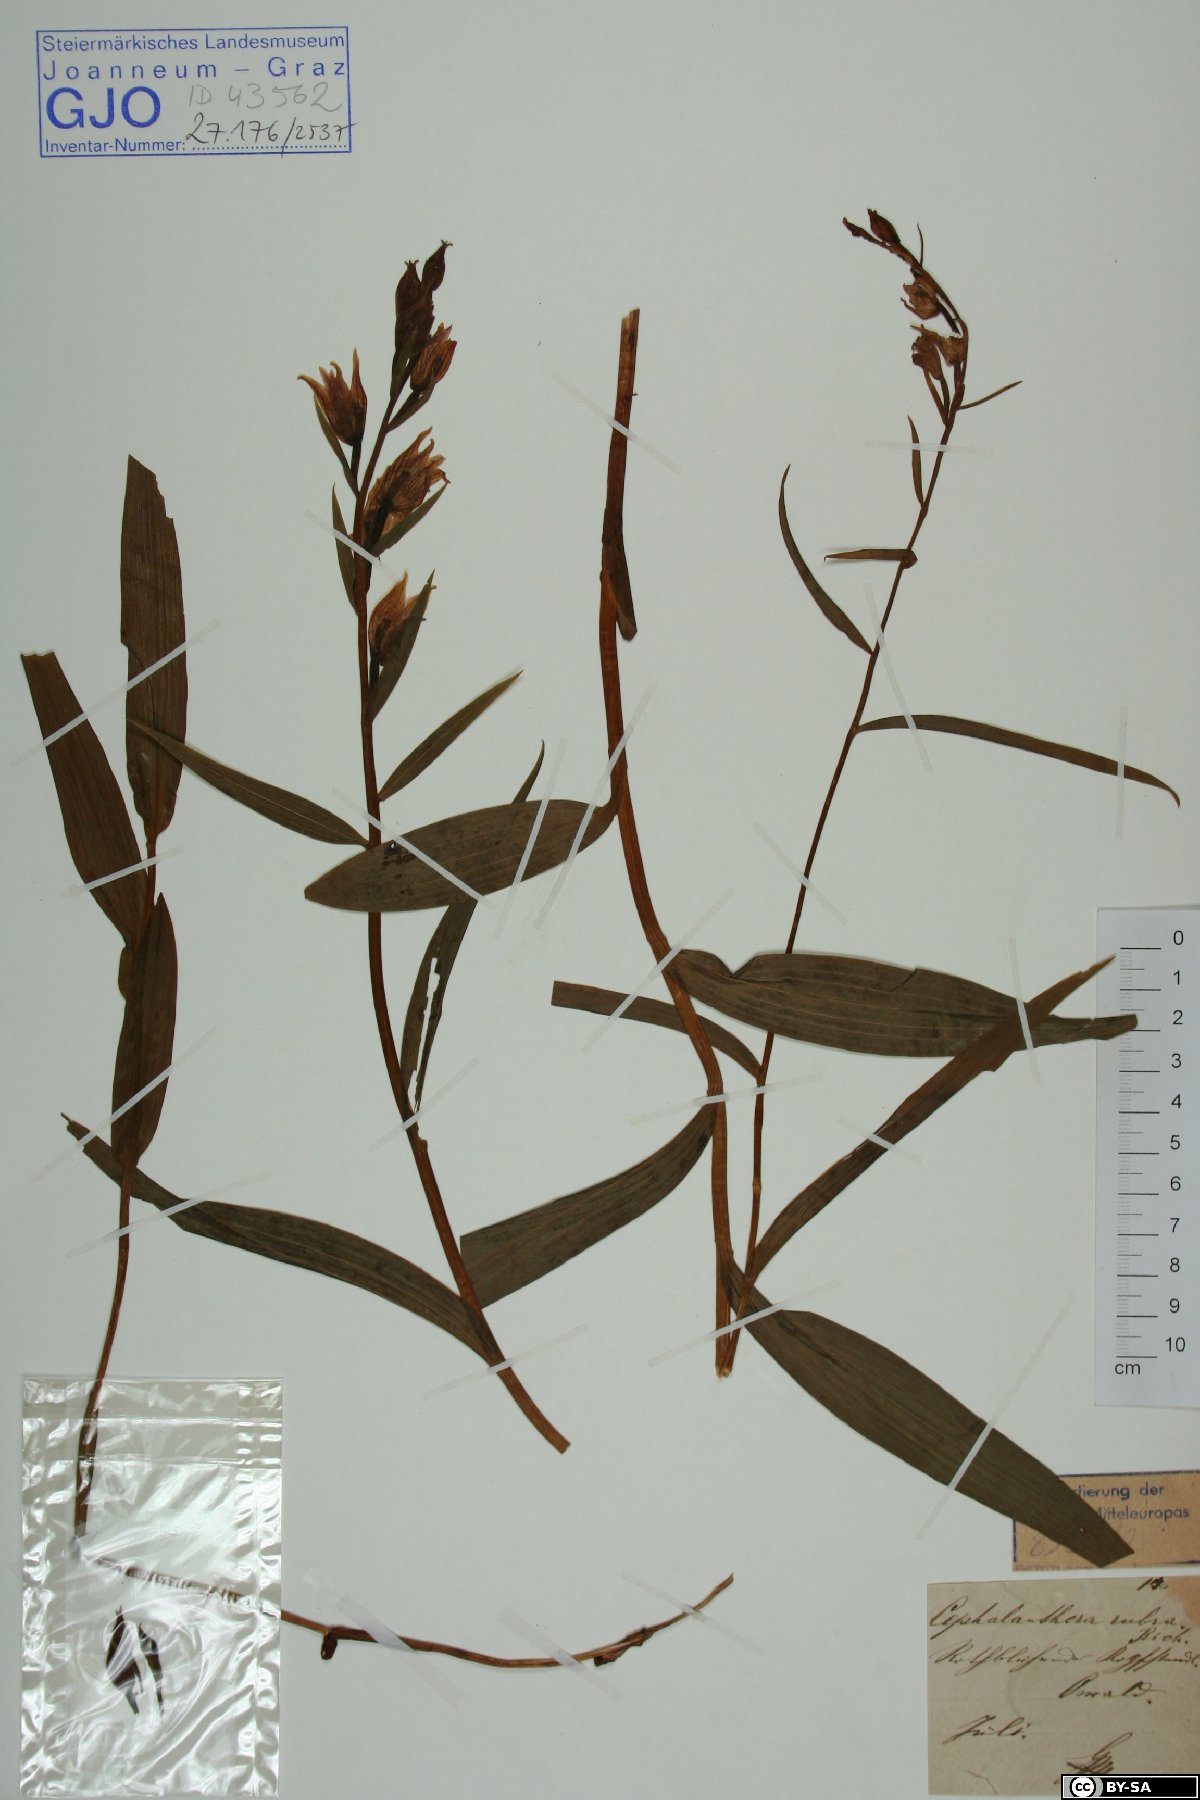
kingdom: Plantae
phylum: Tracheophyta
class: Liliopsida
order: Asparagales
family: Orchidaceae
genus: Cephalanthera
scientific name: Cephalanthera rubra
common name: Red helleborine
